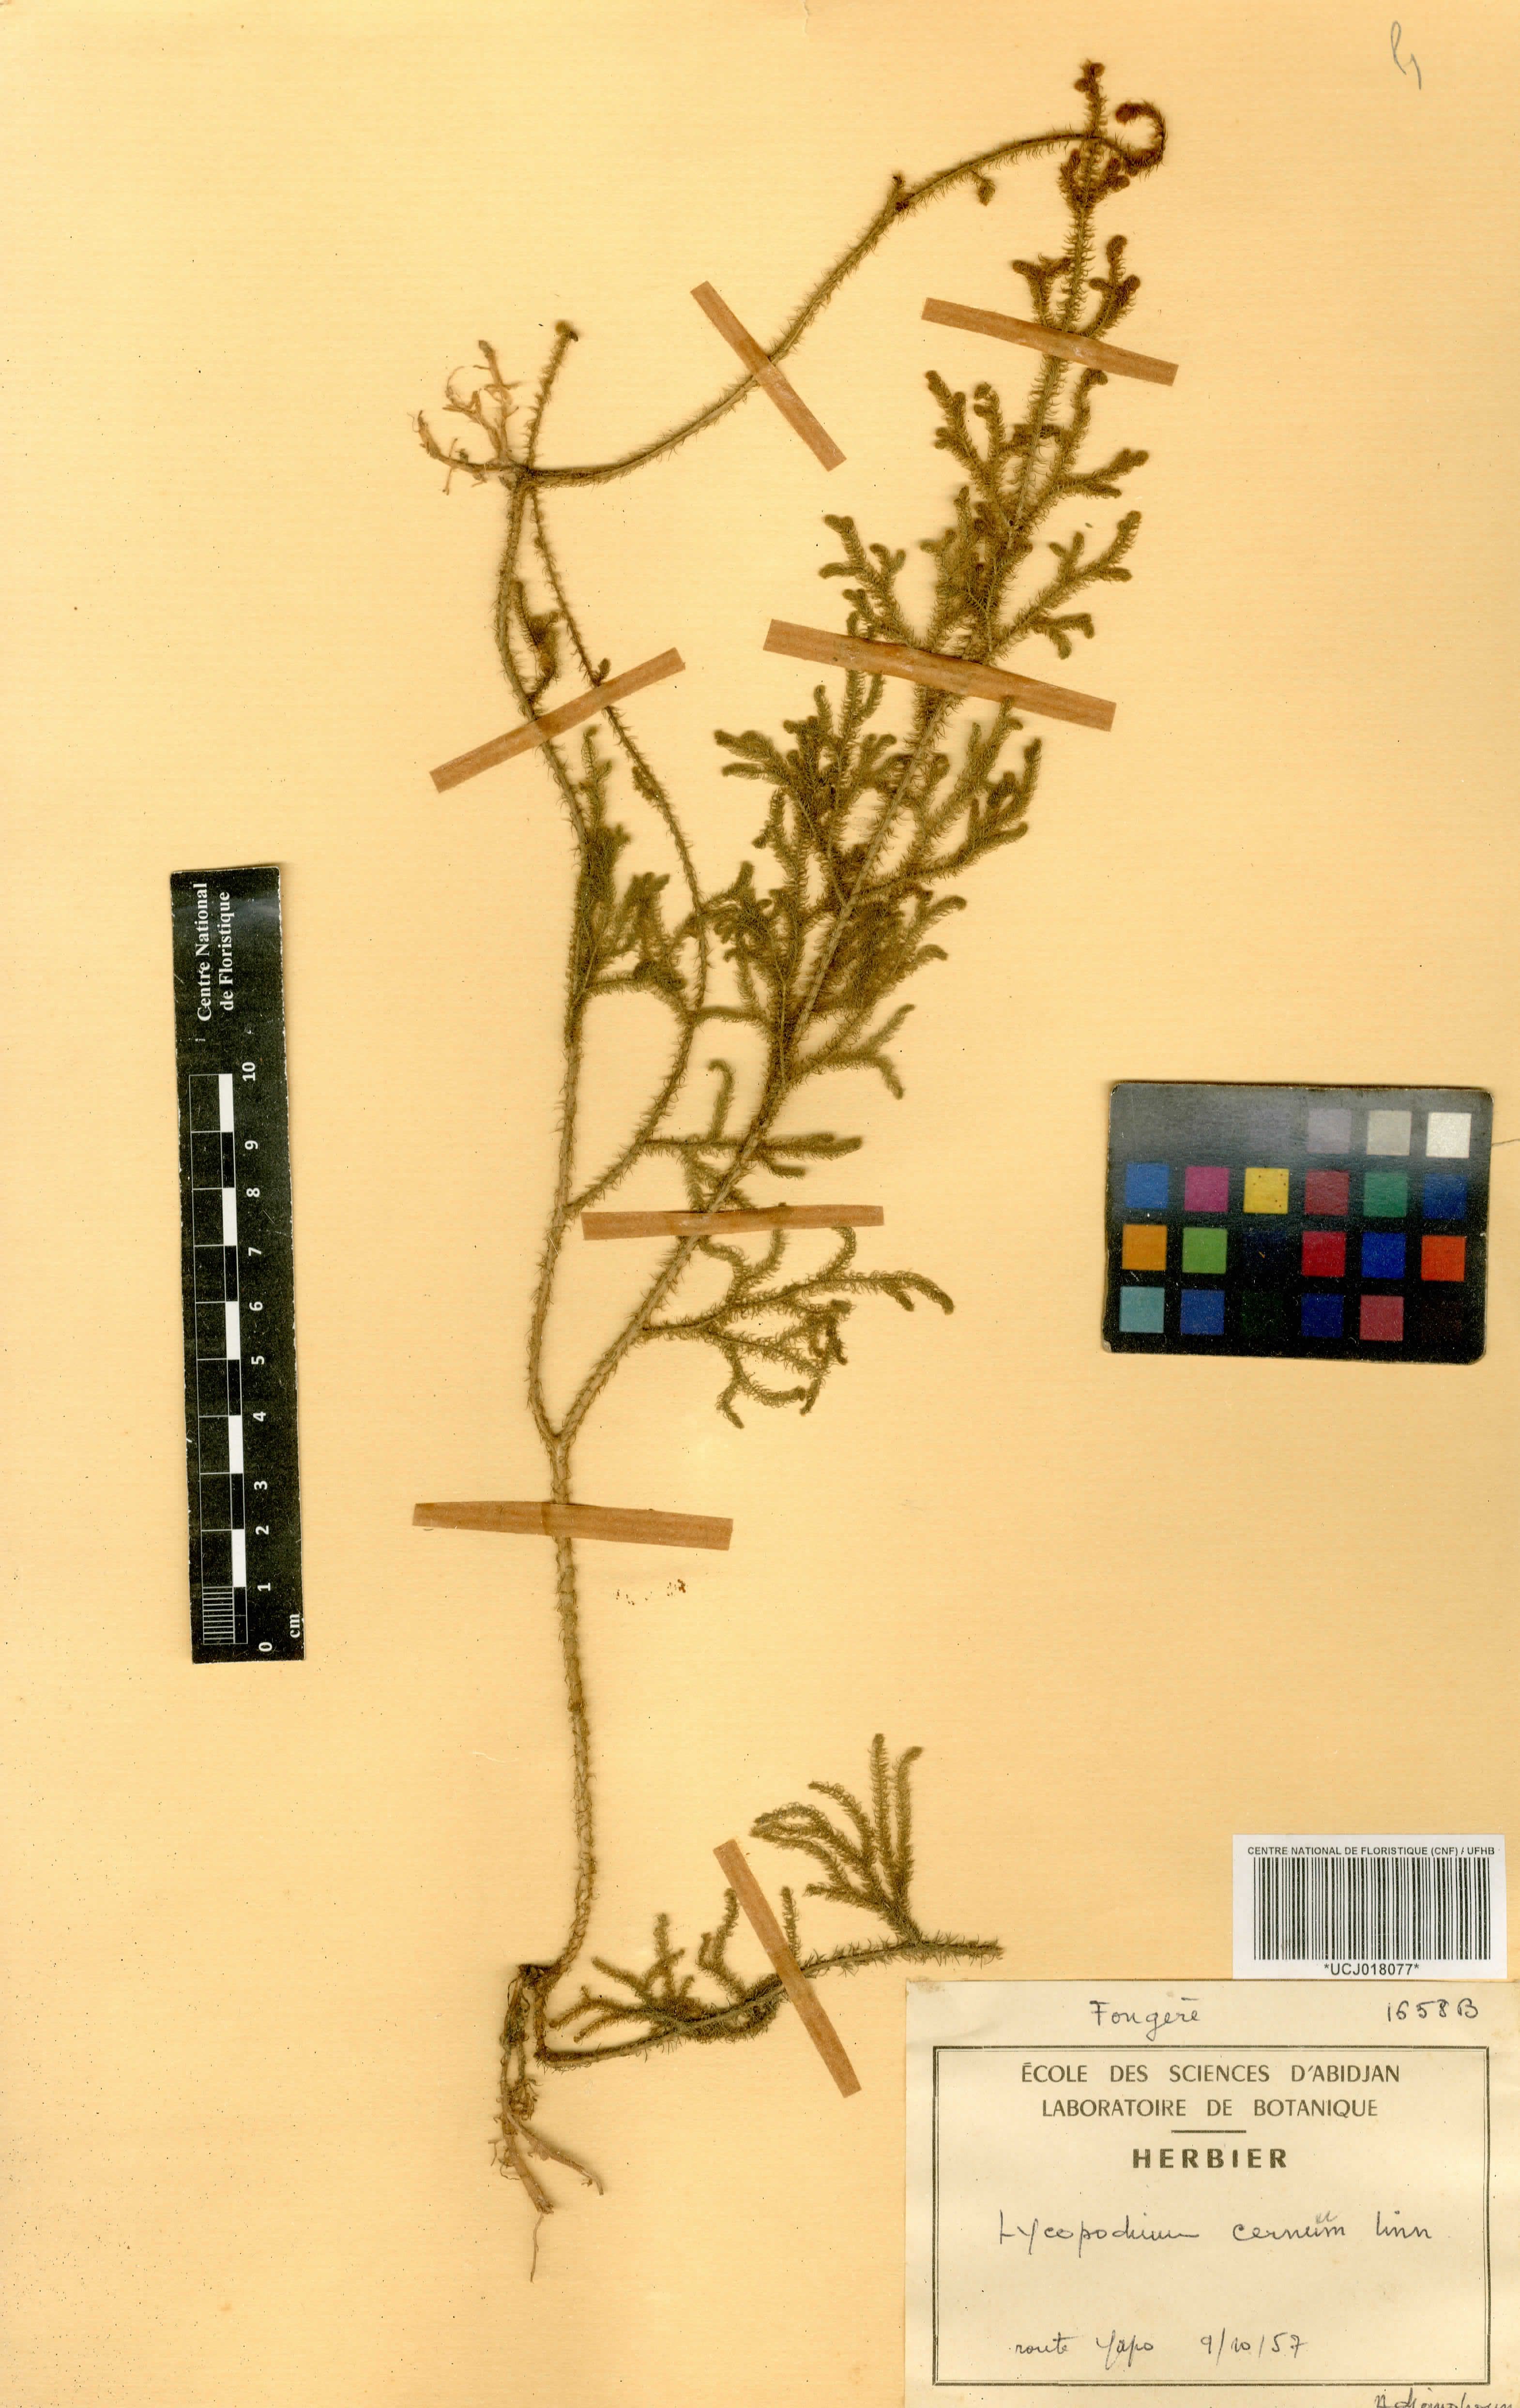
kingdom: Plantae
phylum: Tracheophyta
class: Lycopodiopsida
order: Lycopodiales
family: Lycopodiaceae
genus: Palhinhaea
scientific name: Palhinhaea cernua
